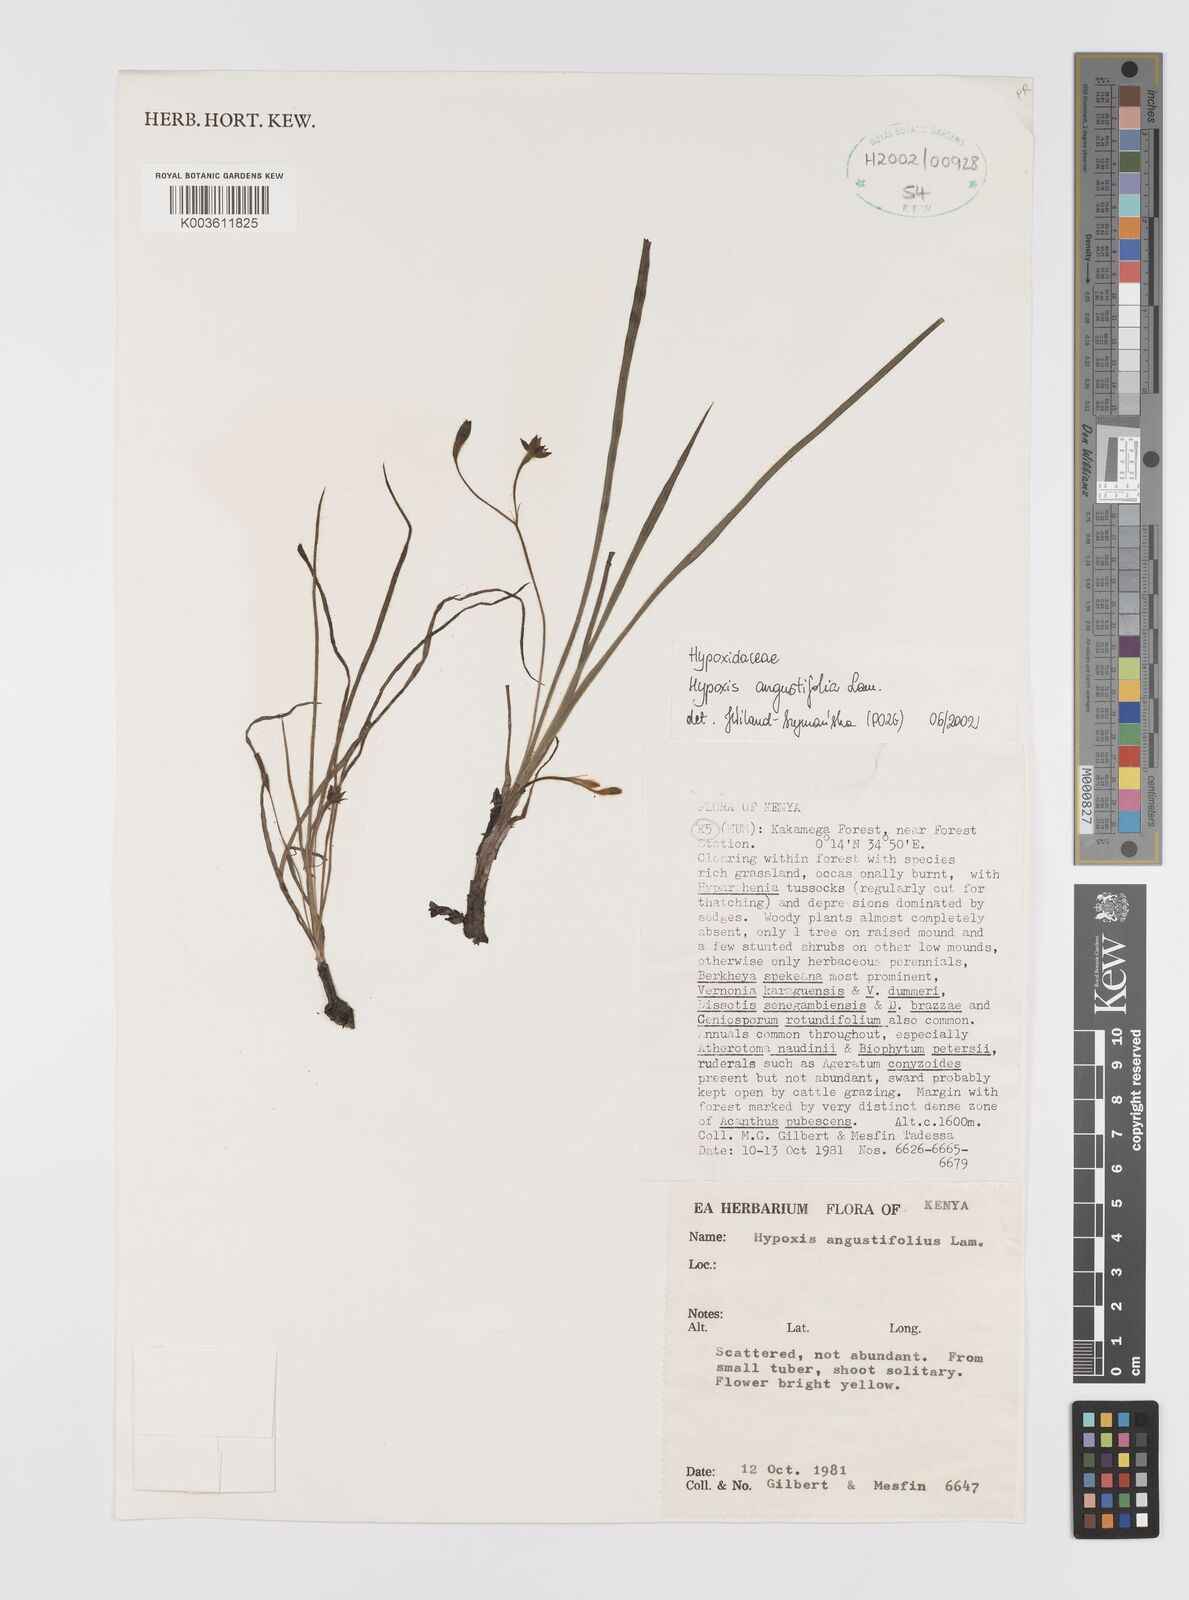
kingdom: Plantae
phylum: Tracheophyta
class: Liliopsida
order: Asparagales
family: Hypoxidaceae
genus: Hypoxis
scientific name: Hypoxis angustifolia
